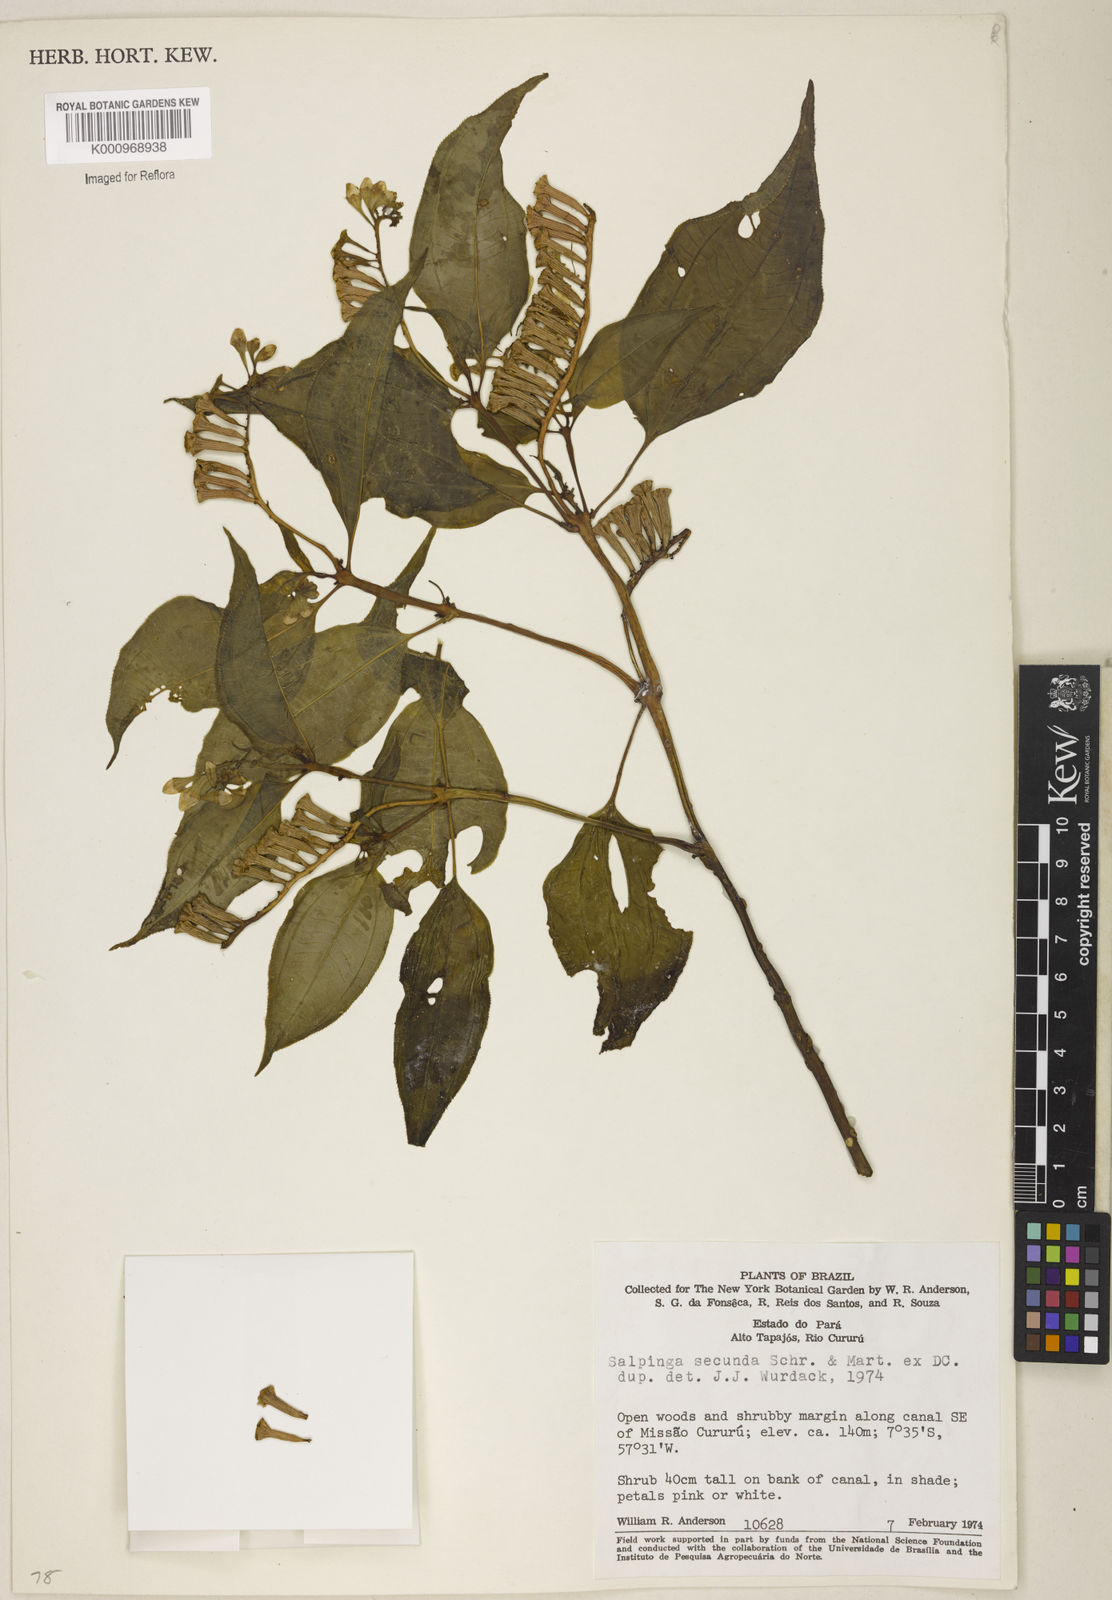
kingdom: Plantae
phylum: Tracheophyta
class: Magnoliopsida
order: Myrtales
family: Melastomataceae
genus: Salpinga
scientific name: Salpinga secunda
